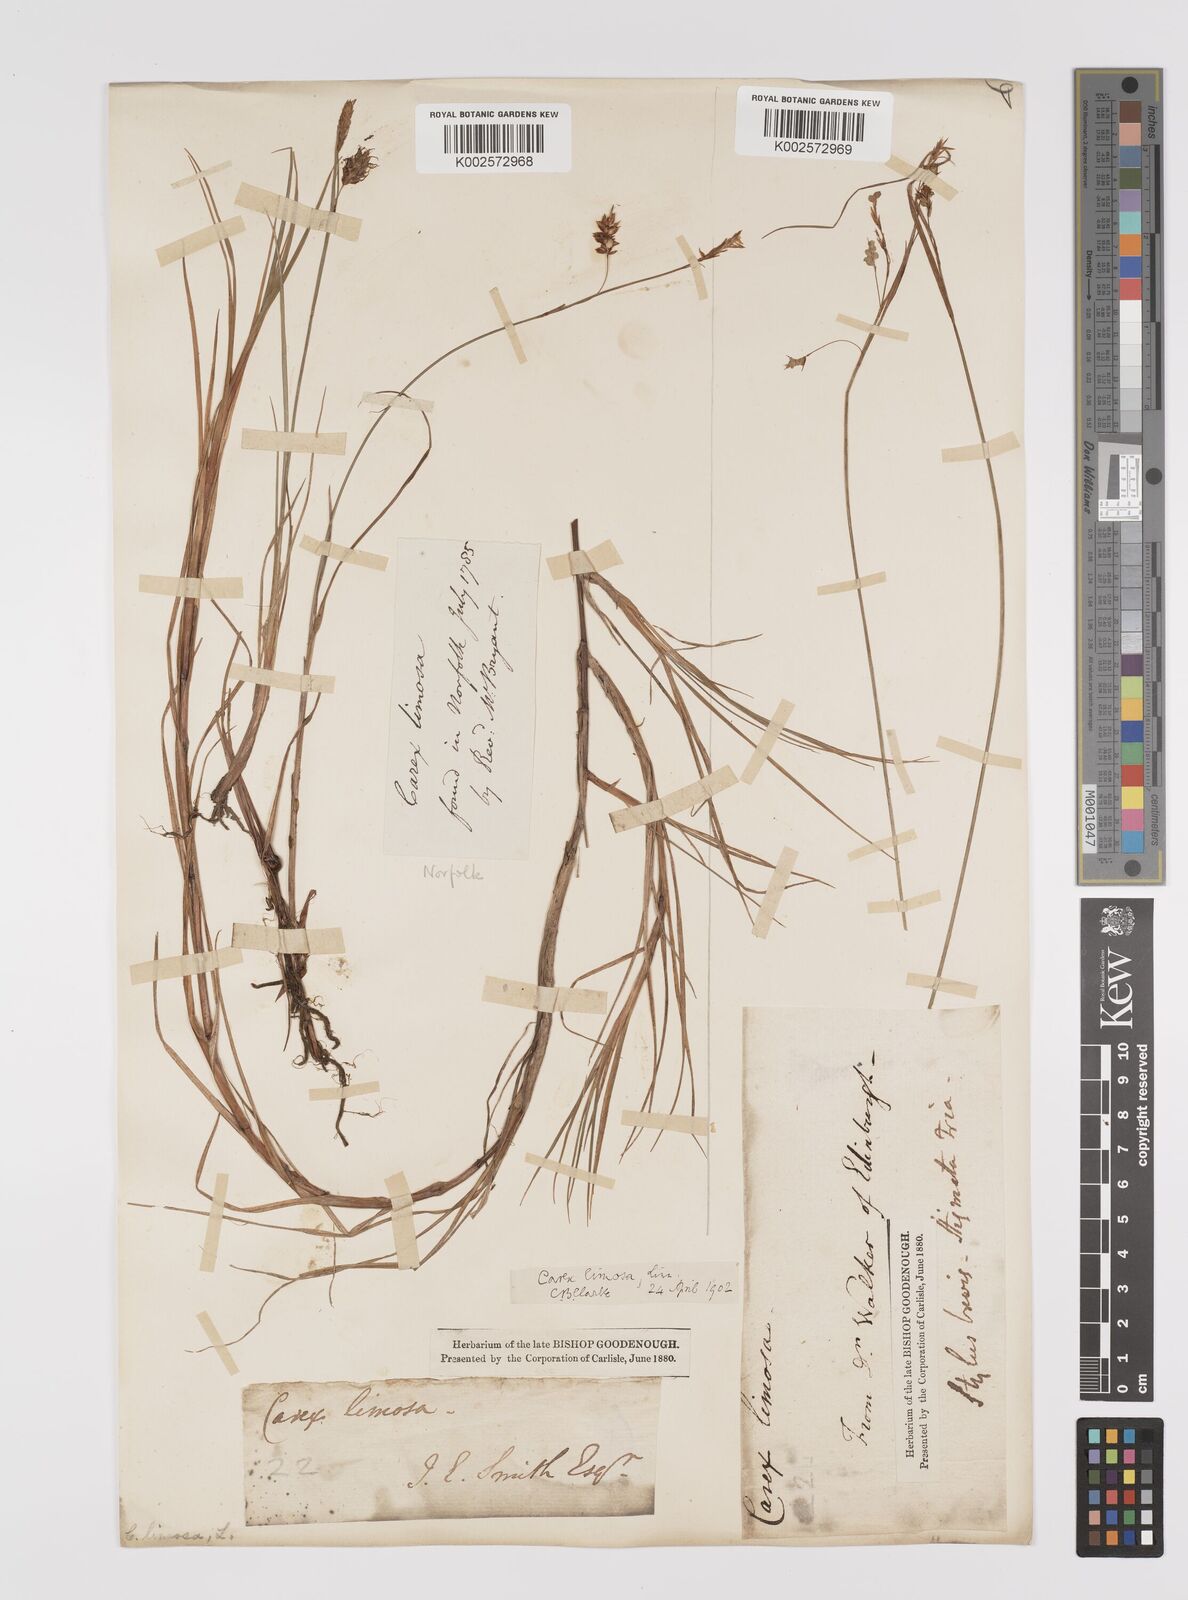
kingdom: Plantae
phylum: Tracheophyta
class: Liliopsida
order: Poales
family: Cyperaceae
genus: Carex
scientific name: Carex limosa
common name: Bog sedge
